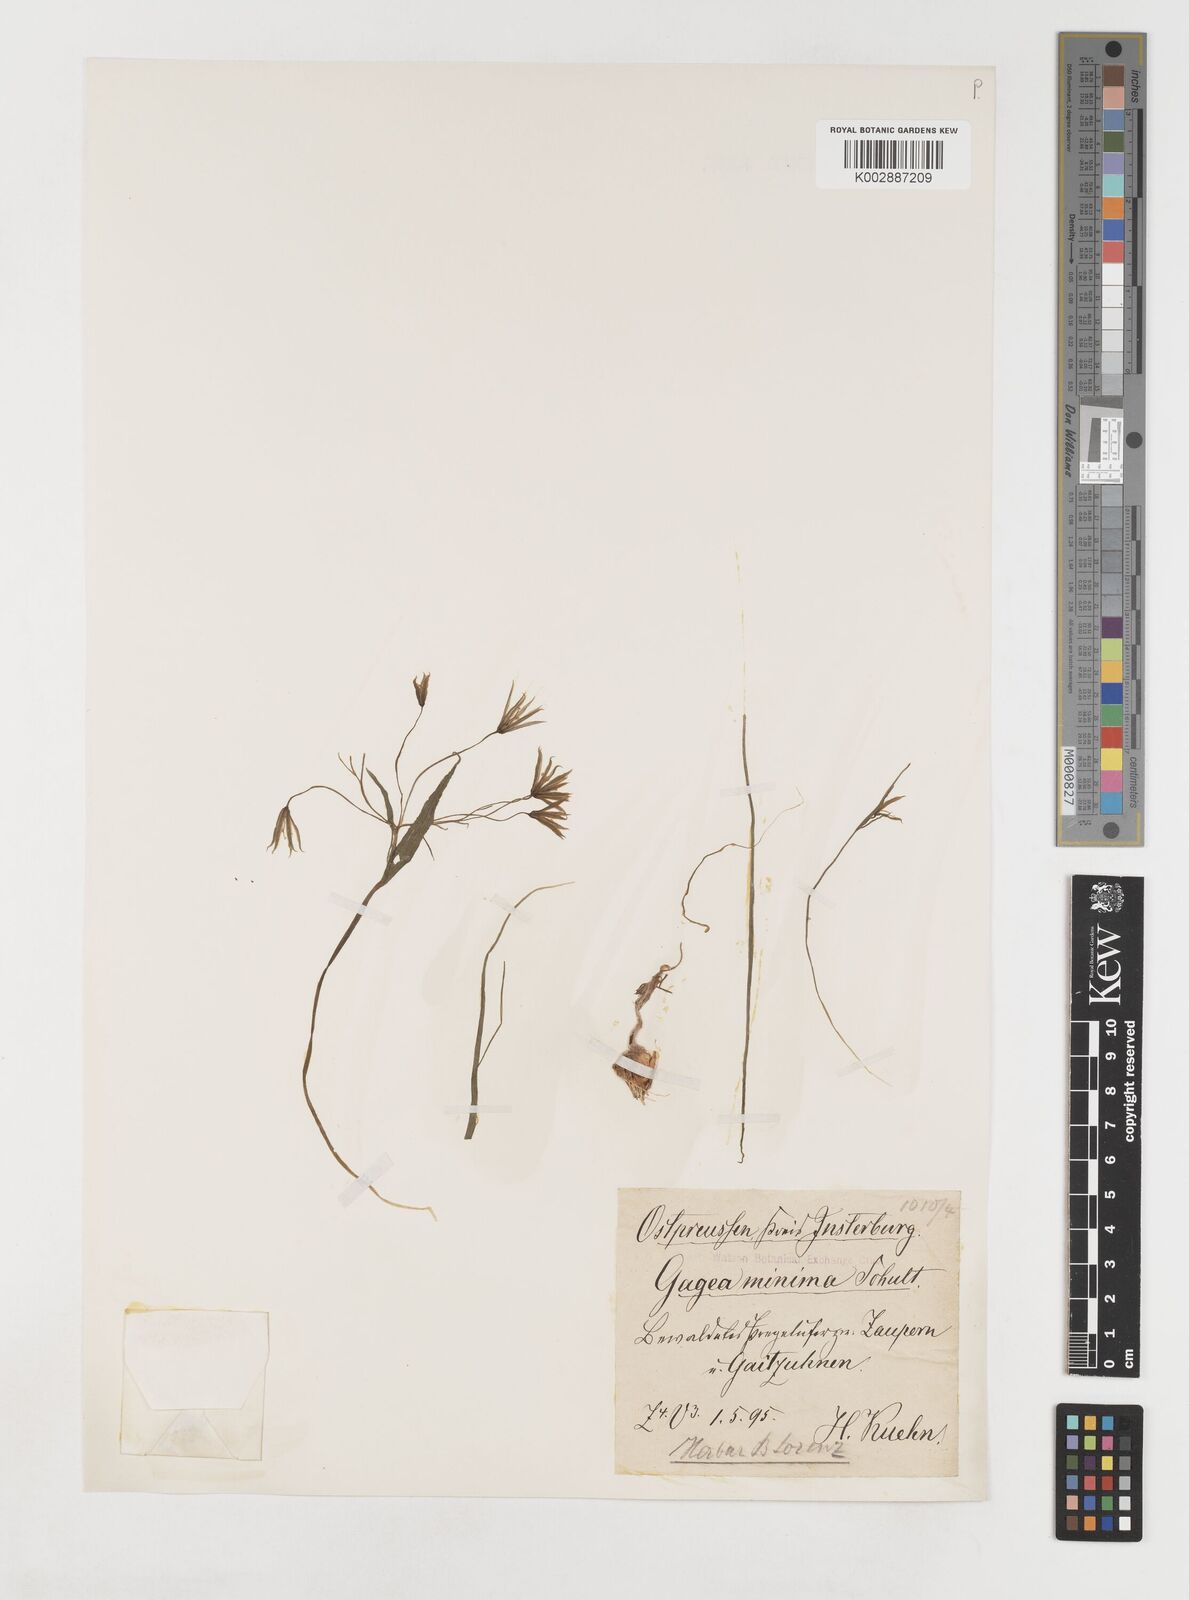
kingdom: Plantae
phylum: Tracheophyta
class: Liliopsida
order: Liliales
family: Liliaceae
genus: Gagea
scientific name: Gagea minima
